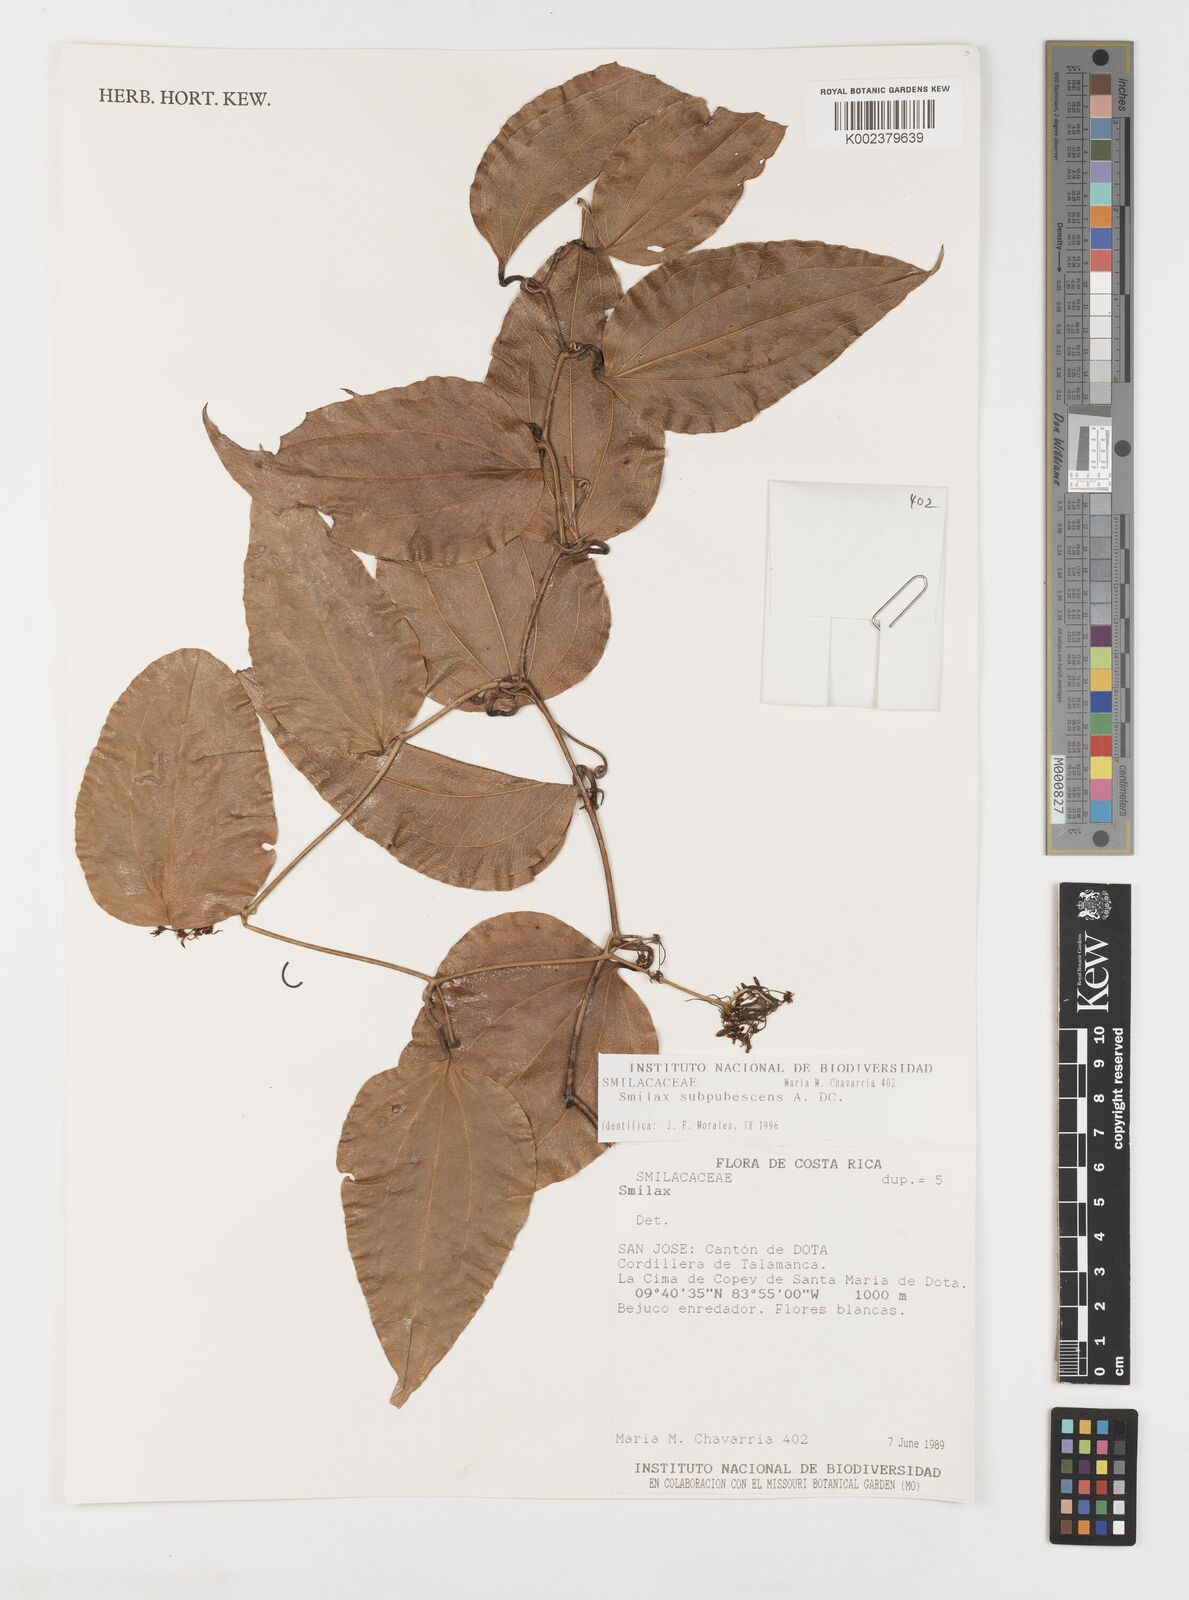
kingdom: Plantae
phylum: Tracheophyta
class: Liliopsida
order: Liliales
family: Smilacaceae
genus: Smilax
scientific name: Smilax subpubescens
